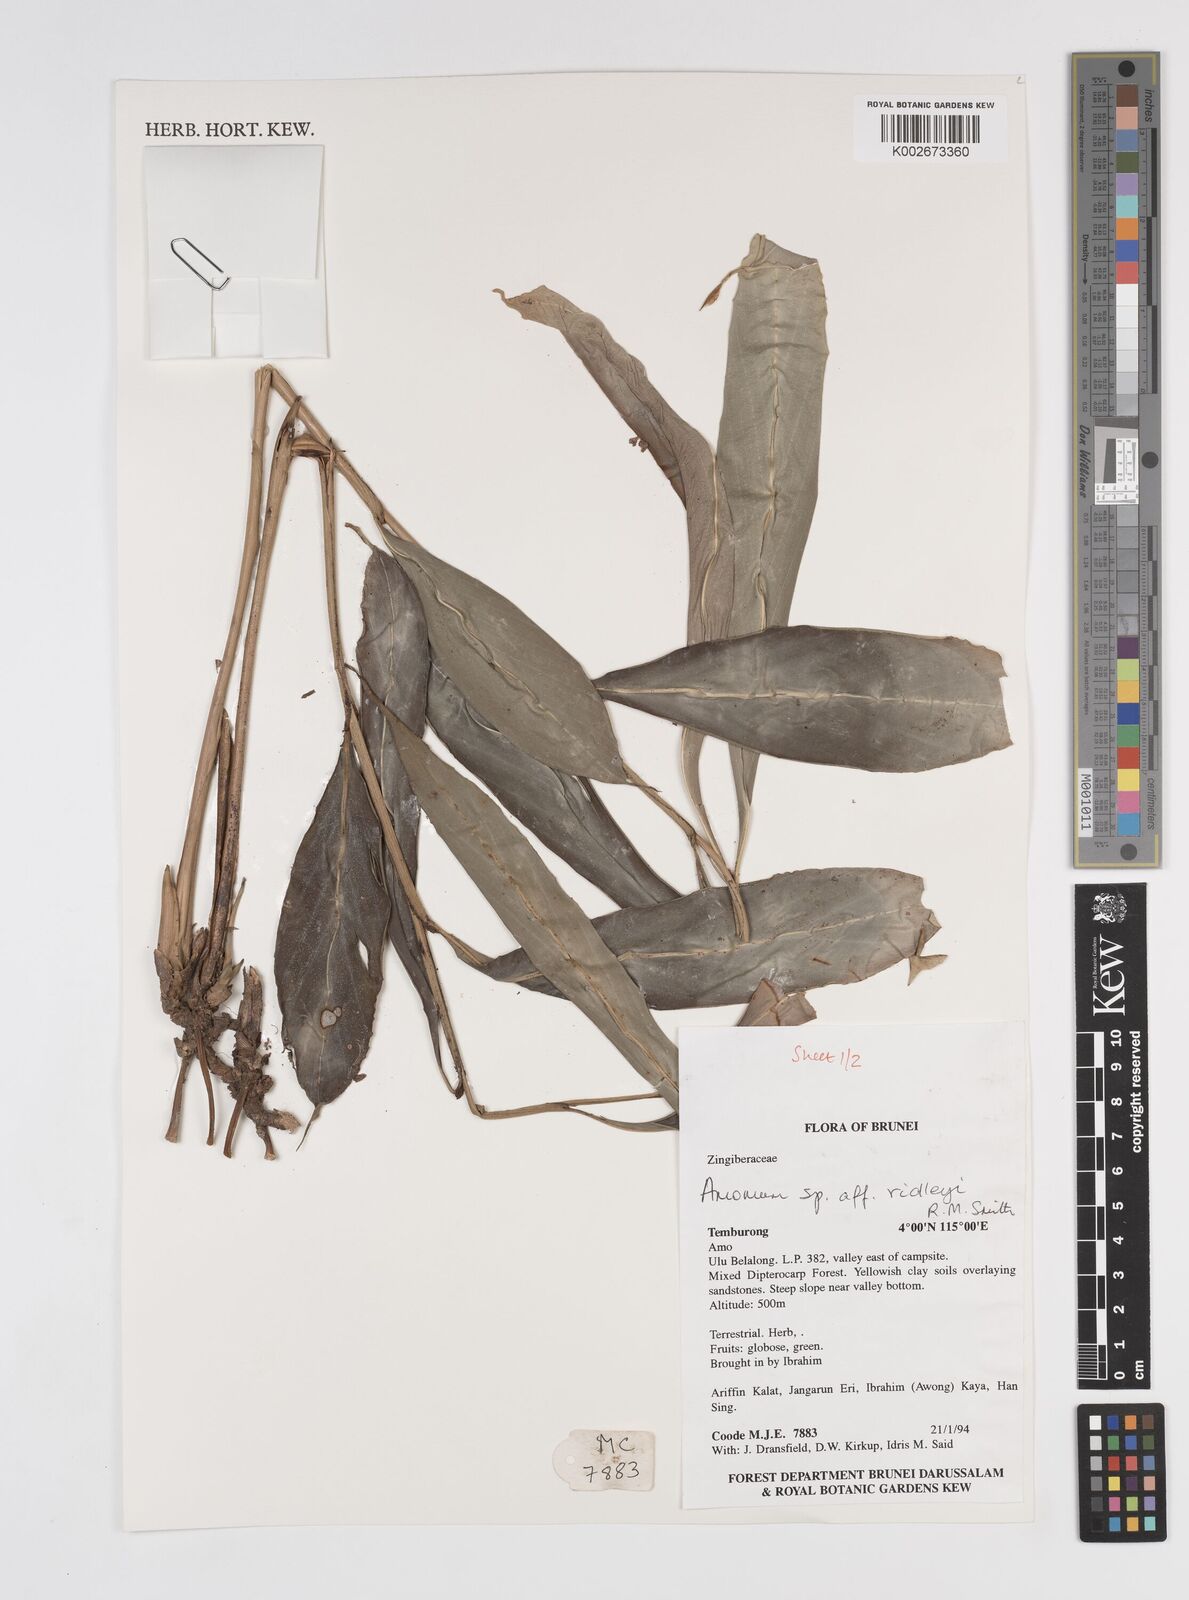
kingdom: Plantae
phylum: Tracheophyta
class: Liliopsida
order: Zingiberales
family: Zingiberaceae
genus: Amomum
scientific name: Amomum
